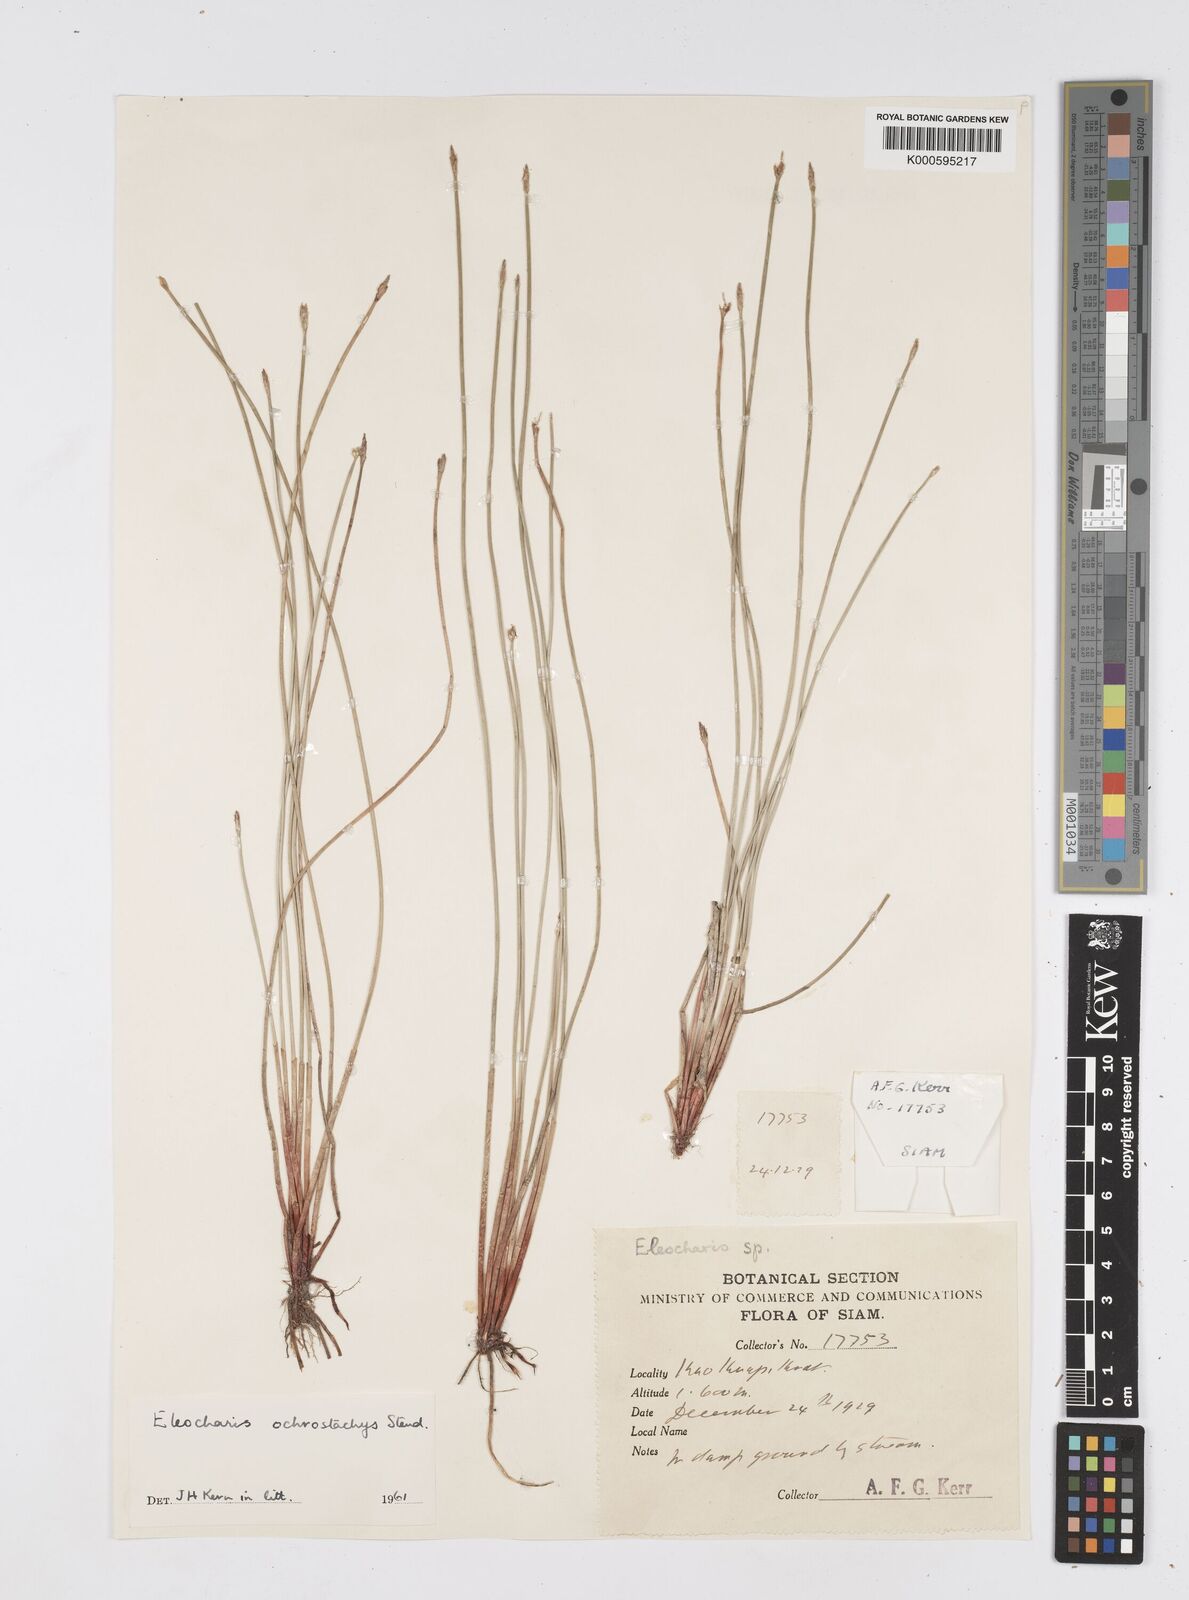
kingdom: Plantae
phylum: Tracheophyta
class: Liliopsida
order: Poales
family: Cyperaceae
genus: Eleocharis
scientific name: Eleocharis ochrostachys
